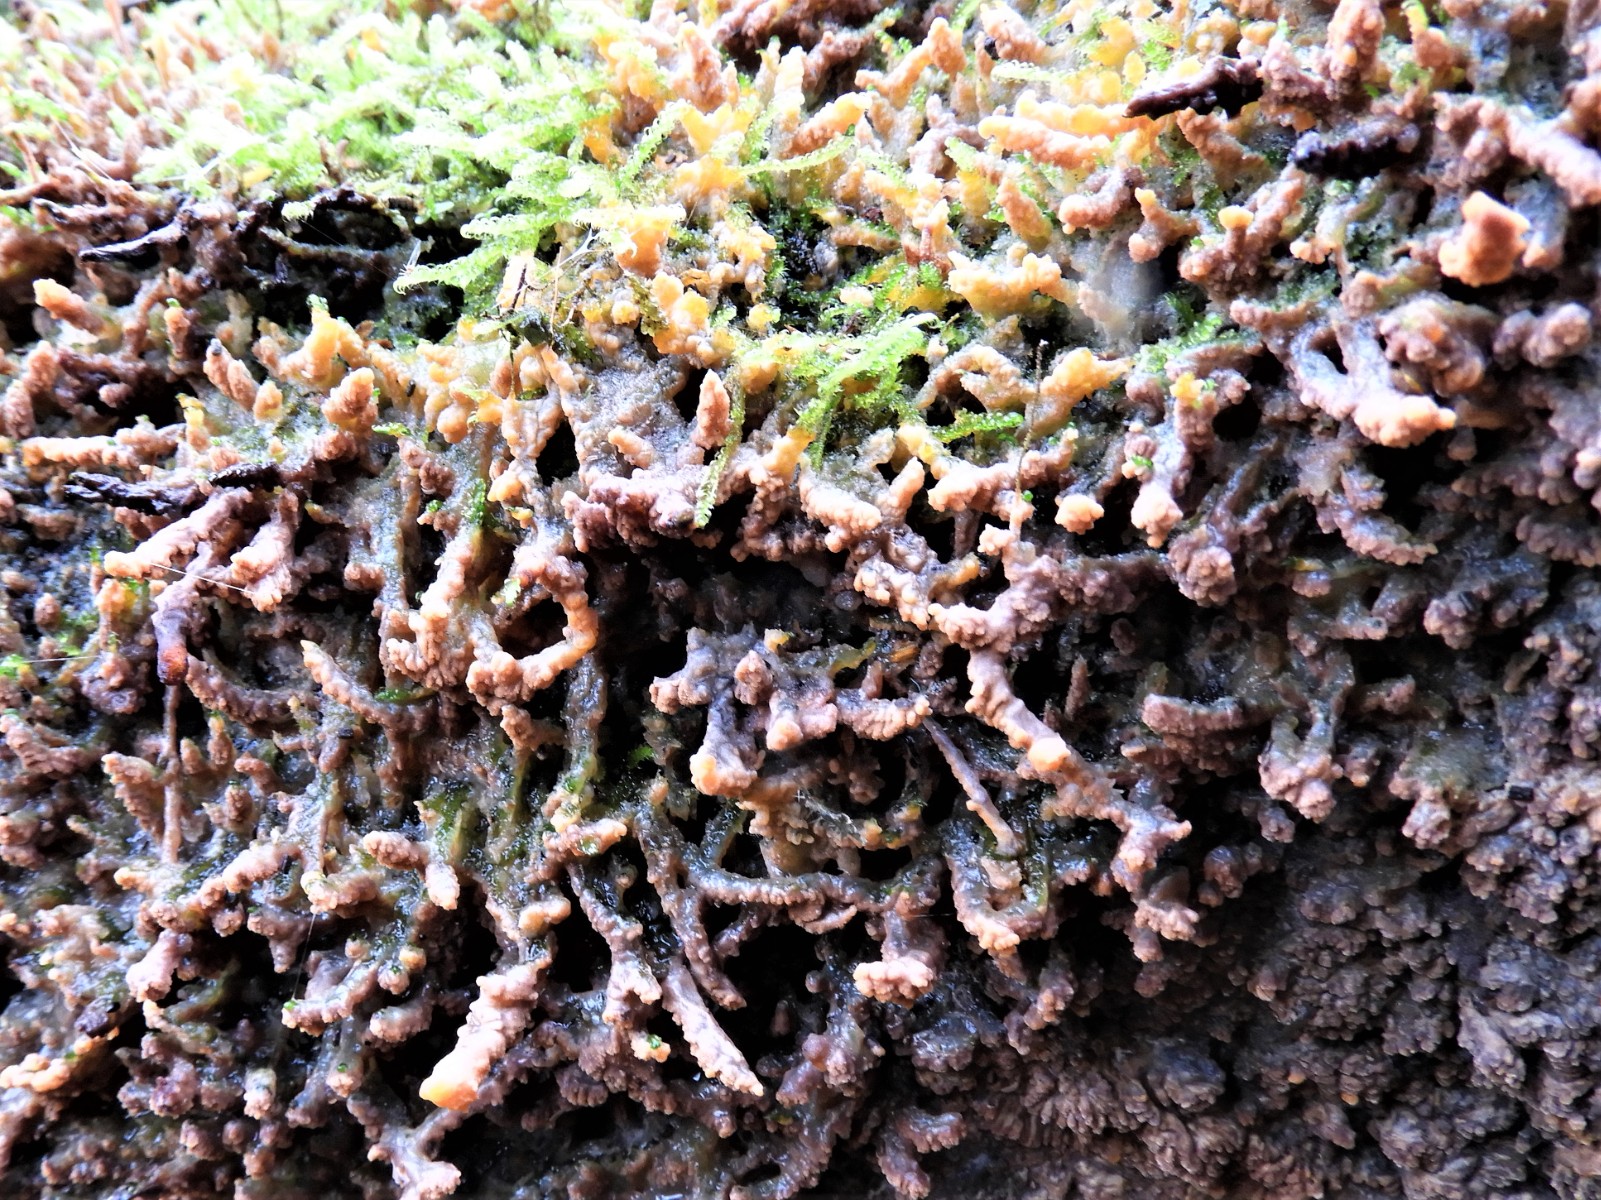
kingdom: Fungi
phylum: Basidiomycota
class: Agaricomycetes
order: Polyporales
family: Meruliaceae
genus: Phlebia
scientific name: Phlebia radiata
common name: stråle-åresvamp
